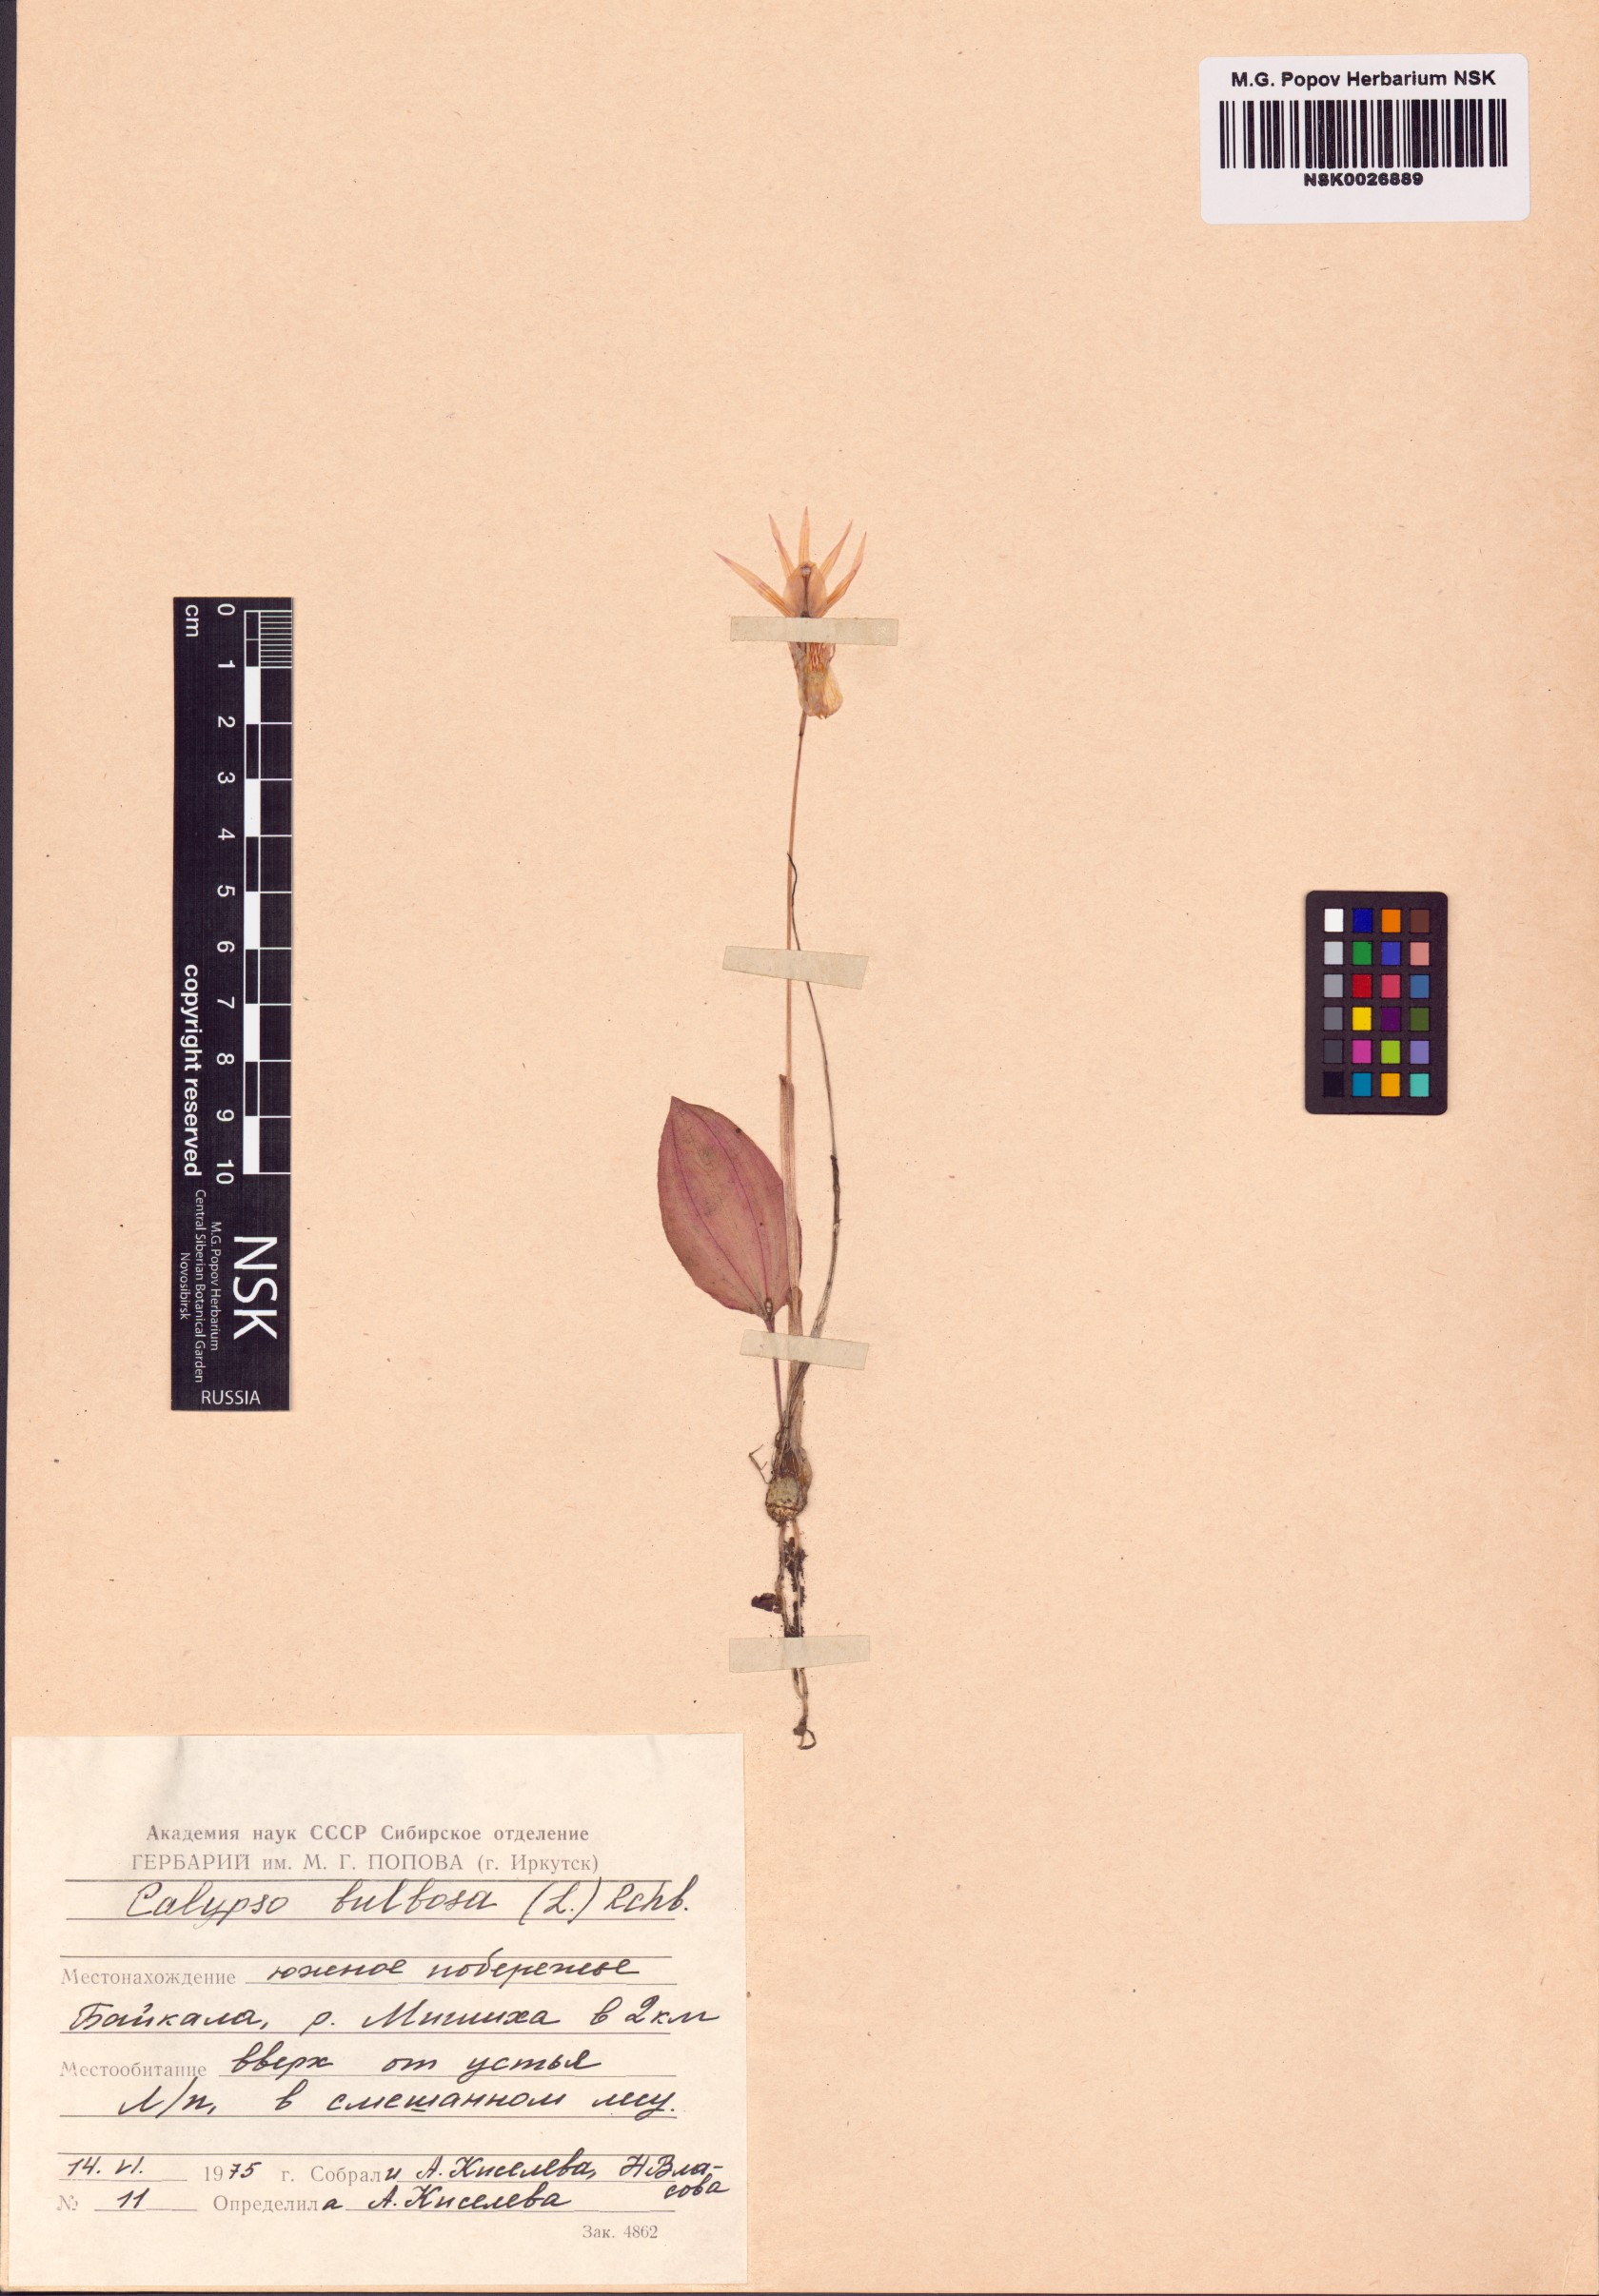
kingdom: Plantae
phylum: Tracheophyta
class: Liliopsida
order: Asparagales
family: Orchidaceae
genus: Calypso
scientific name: Calypso bulbosa
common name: Calypso
